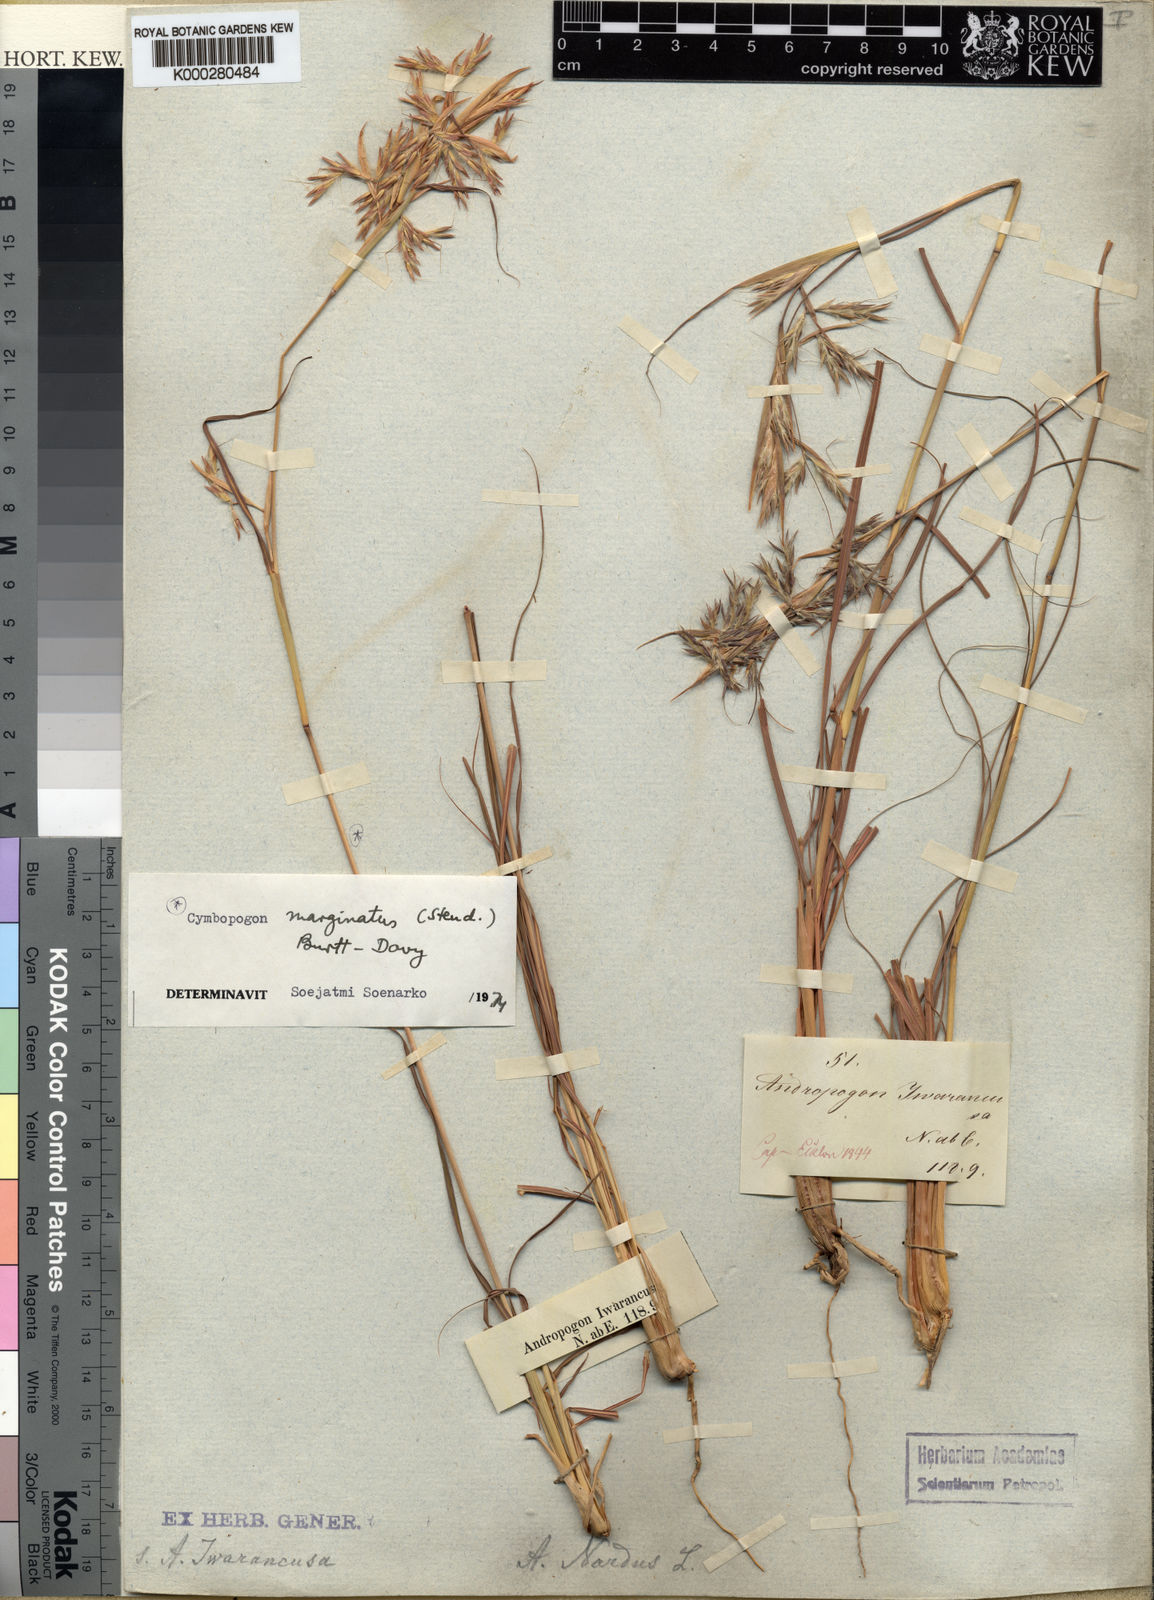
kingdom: Plantae
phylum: Tracheophyta
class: Liliopsida
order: Poales
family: Poaceae
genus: Cymbopogon
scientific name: Cymbopogon pospischilii
